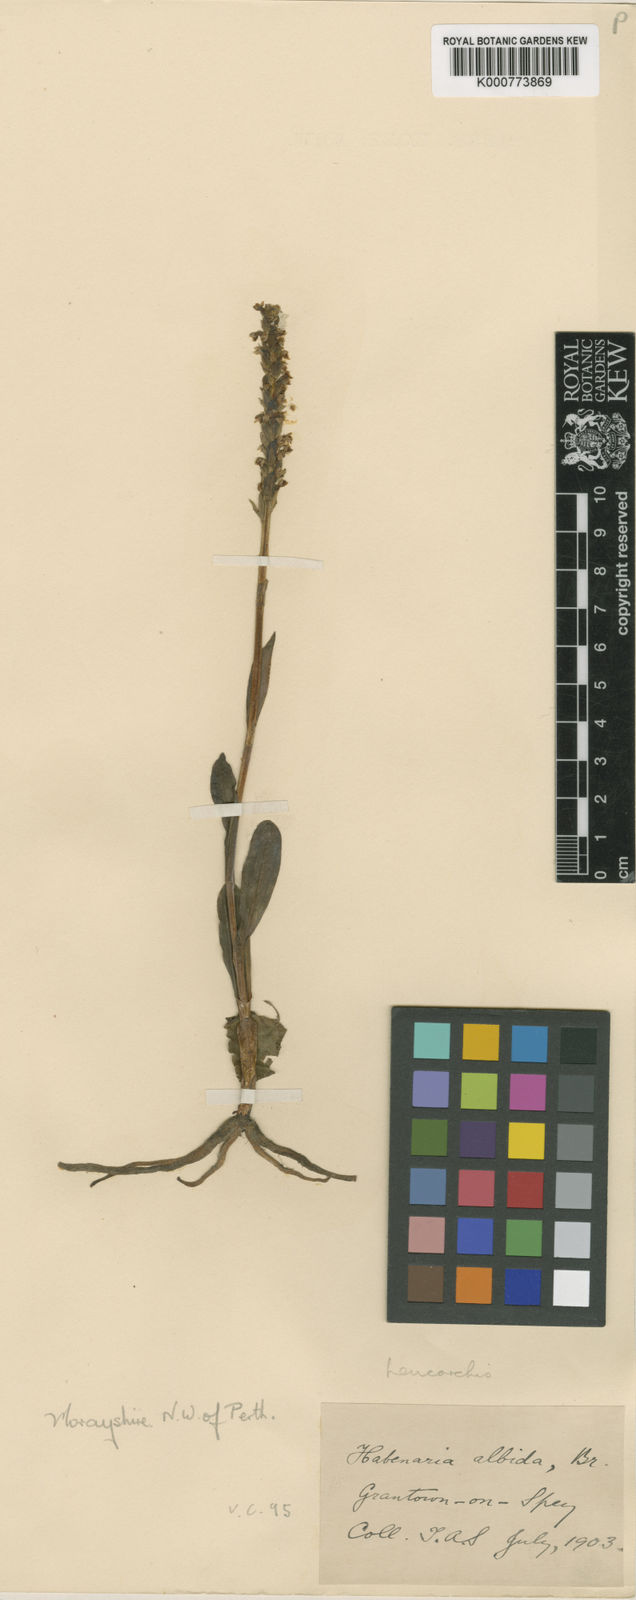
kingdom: Plantae
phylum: Tracheophyta
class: Liliopsida
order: Asparagales
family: Orchidaceae
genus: Pseudorchis
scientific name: Pseudorchis
